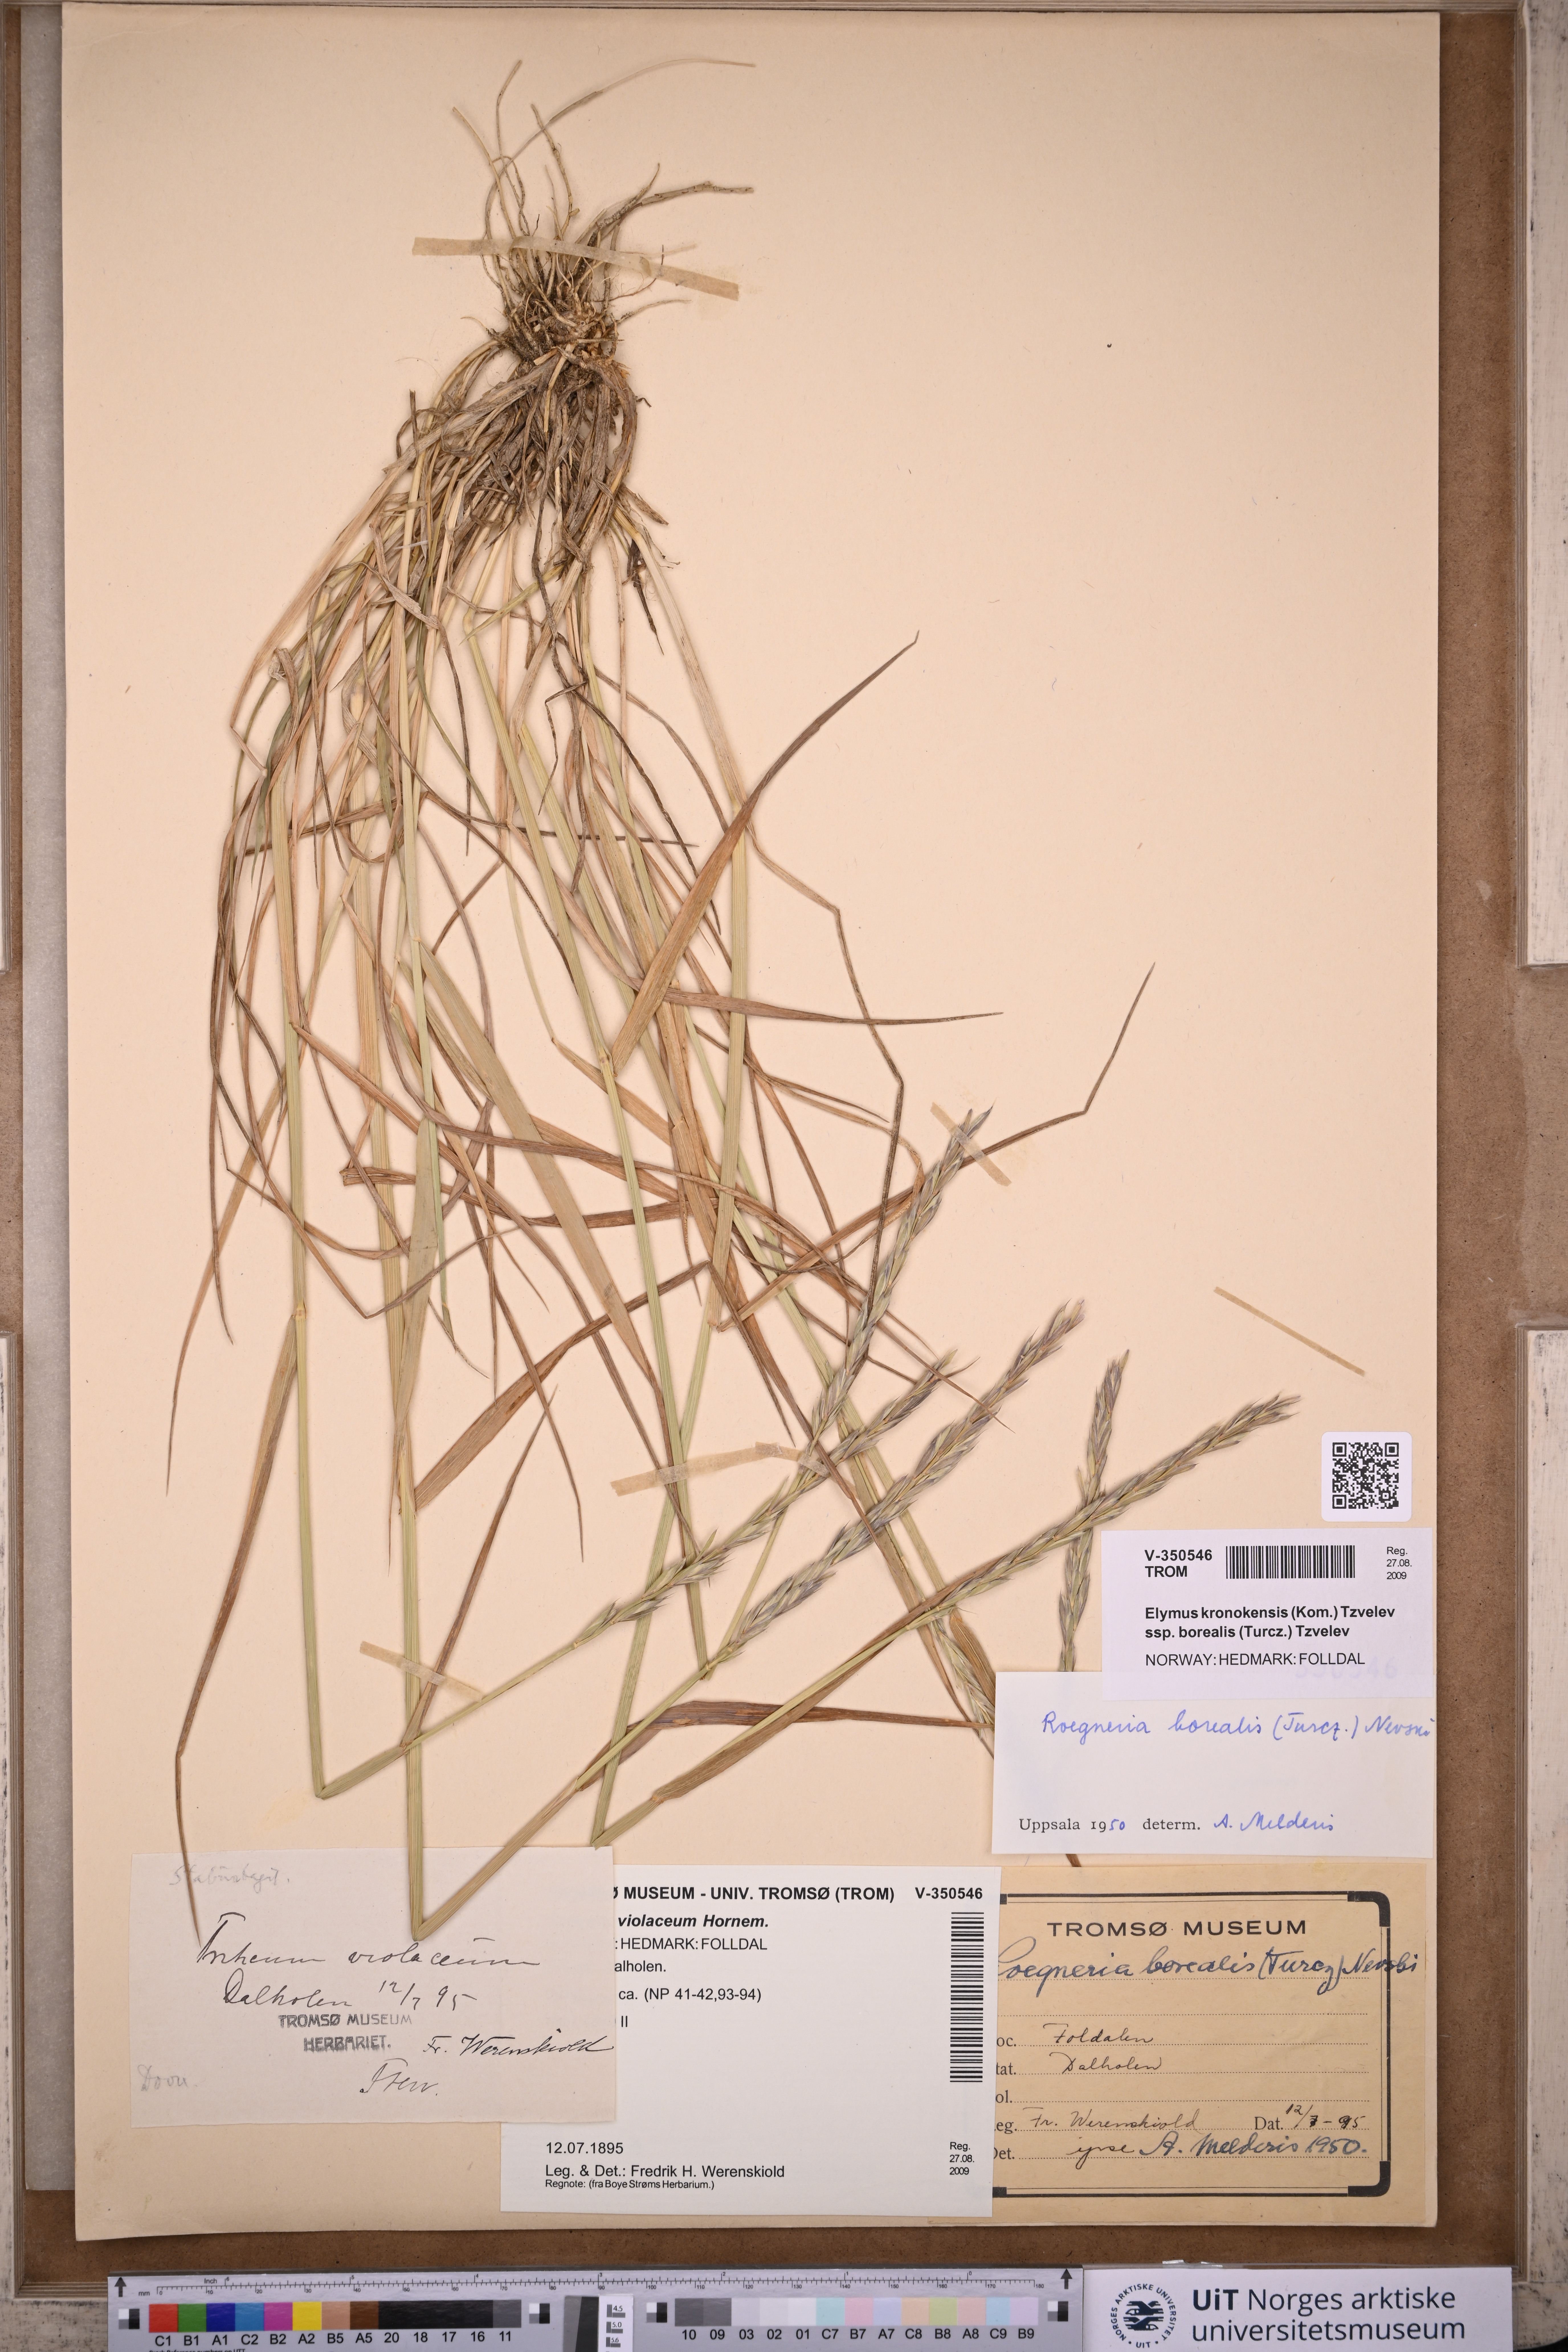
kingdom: Plantae
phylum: Tracheophyta
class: Liliopsida
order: Poales
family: Poaceae
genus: Elymus
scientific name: Elymus macrourus
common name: Northern wheatgrass
